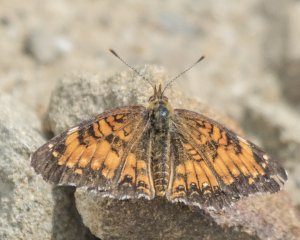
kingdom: Animalia
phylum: Arthropoda
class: Insecta
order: Lepidoptera
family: Nymphalidae
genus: Chlosyne
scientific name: Chlosyne harrisii
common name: Harris's Checkerspot
